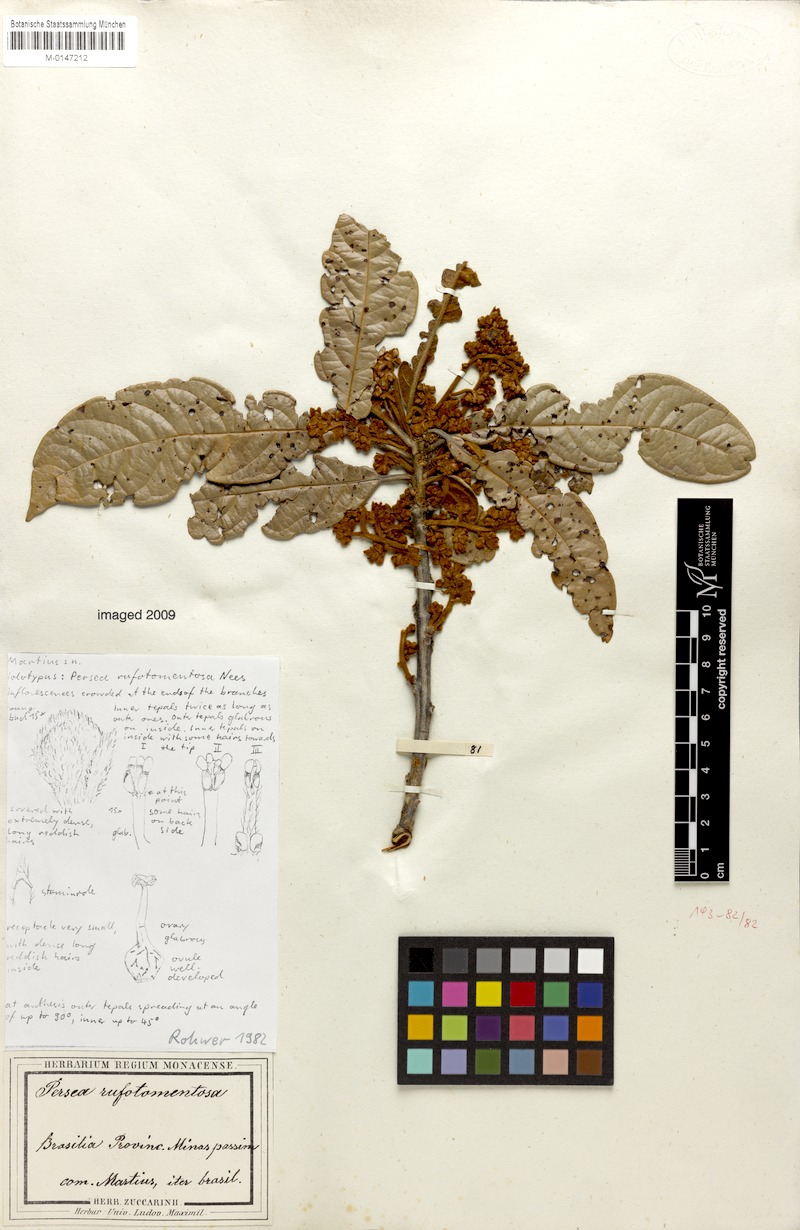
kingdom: Plantae
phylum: Tracheophyta
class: Magnoliopsida
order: Laurales
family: Lauraceae
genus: Persea
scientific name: Persea rufotomentosa
